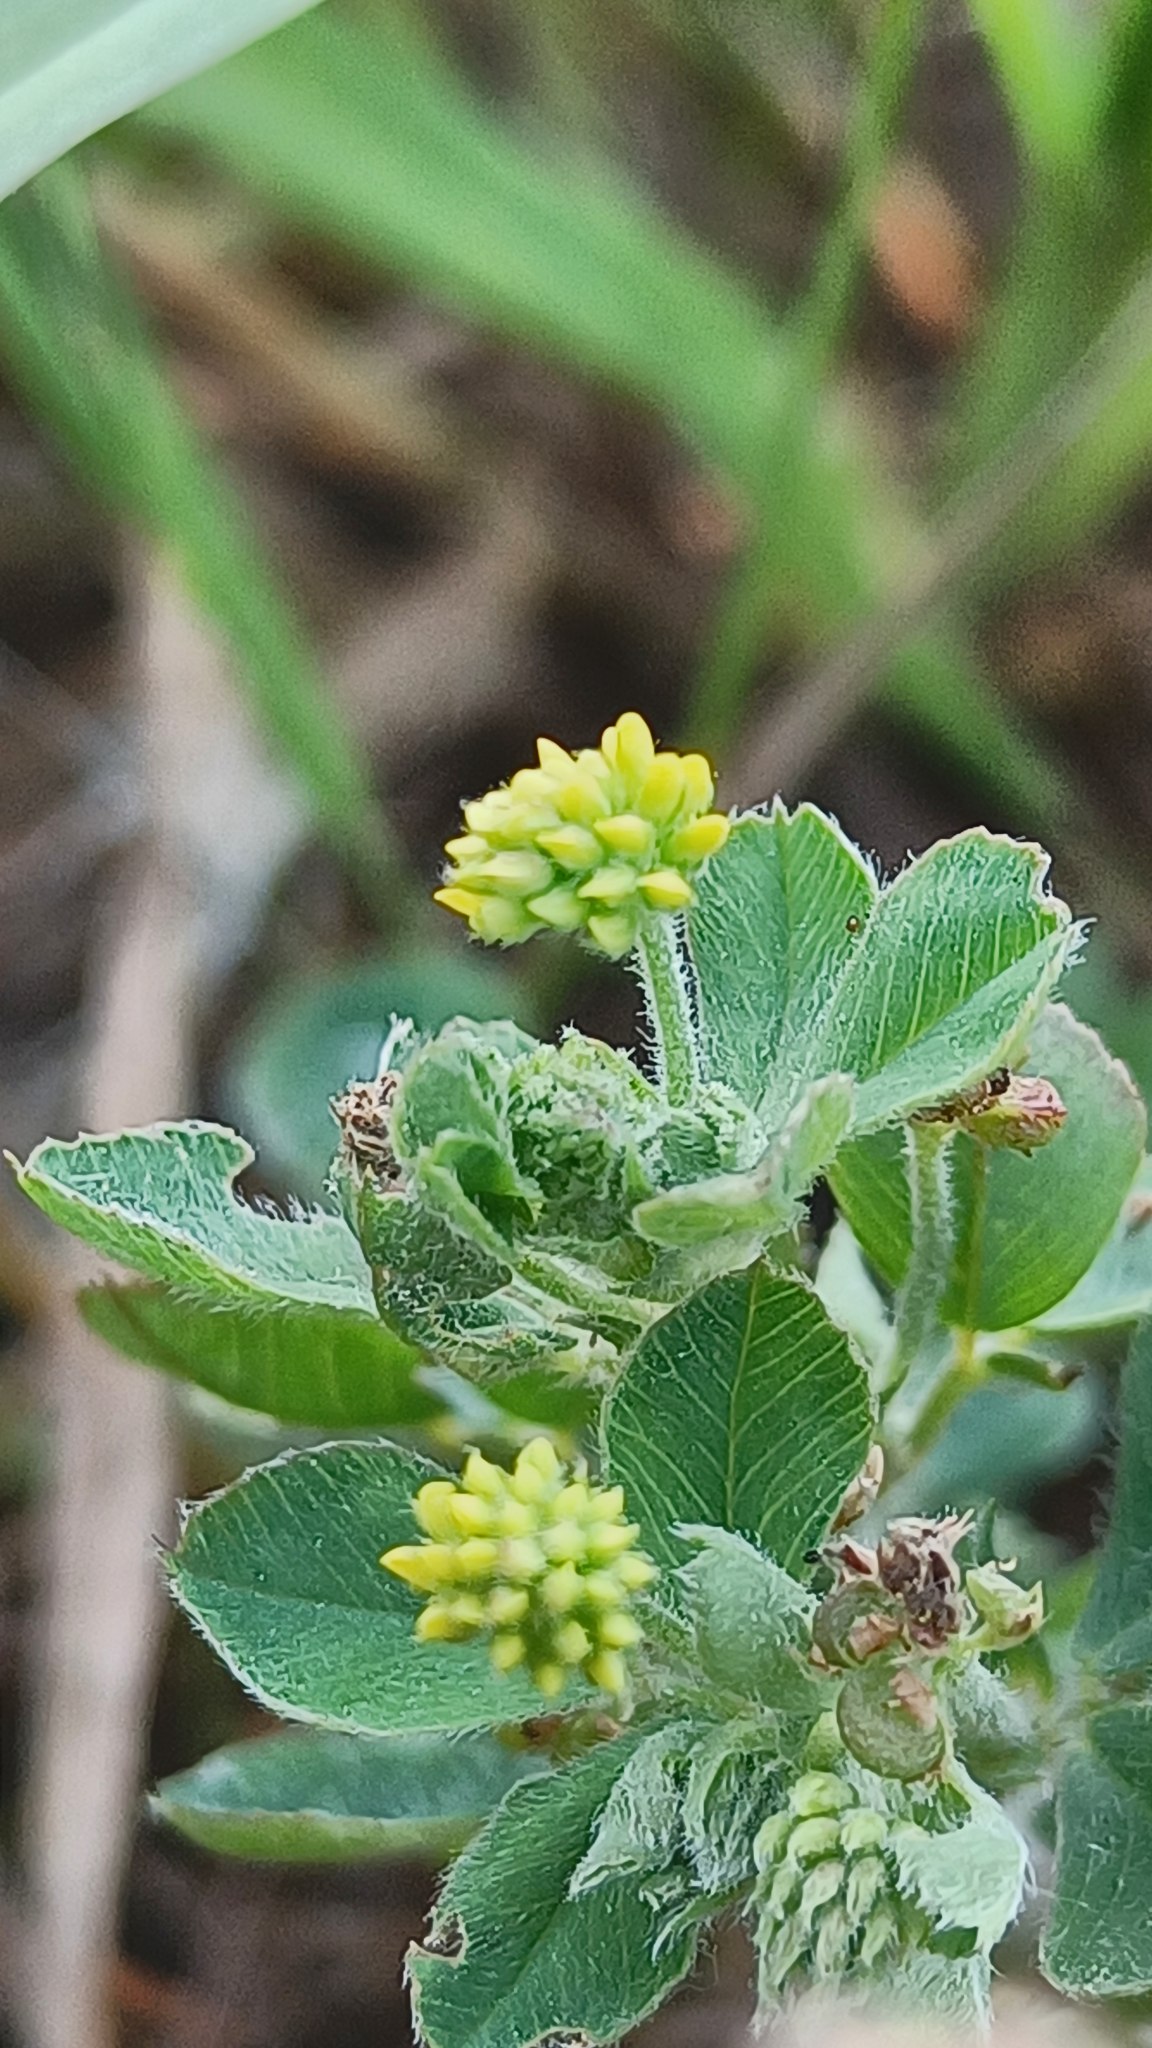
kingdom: Plantae
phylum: Tracheophyta
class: Magnoliopsida
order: Fabales
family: Fabaceae
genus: Medicago
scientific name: Medicago lupulina
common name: Humle-sneglebælg
